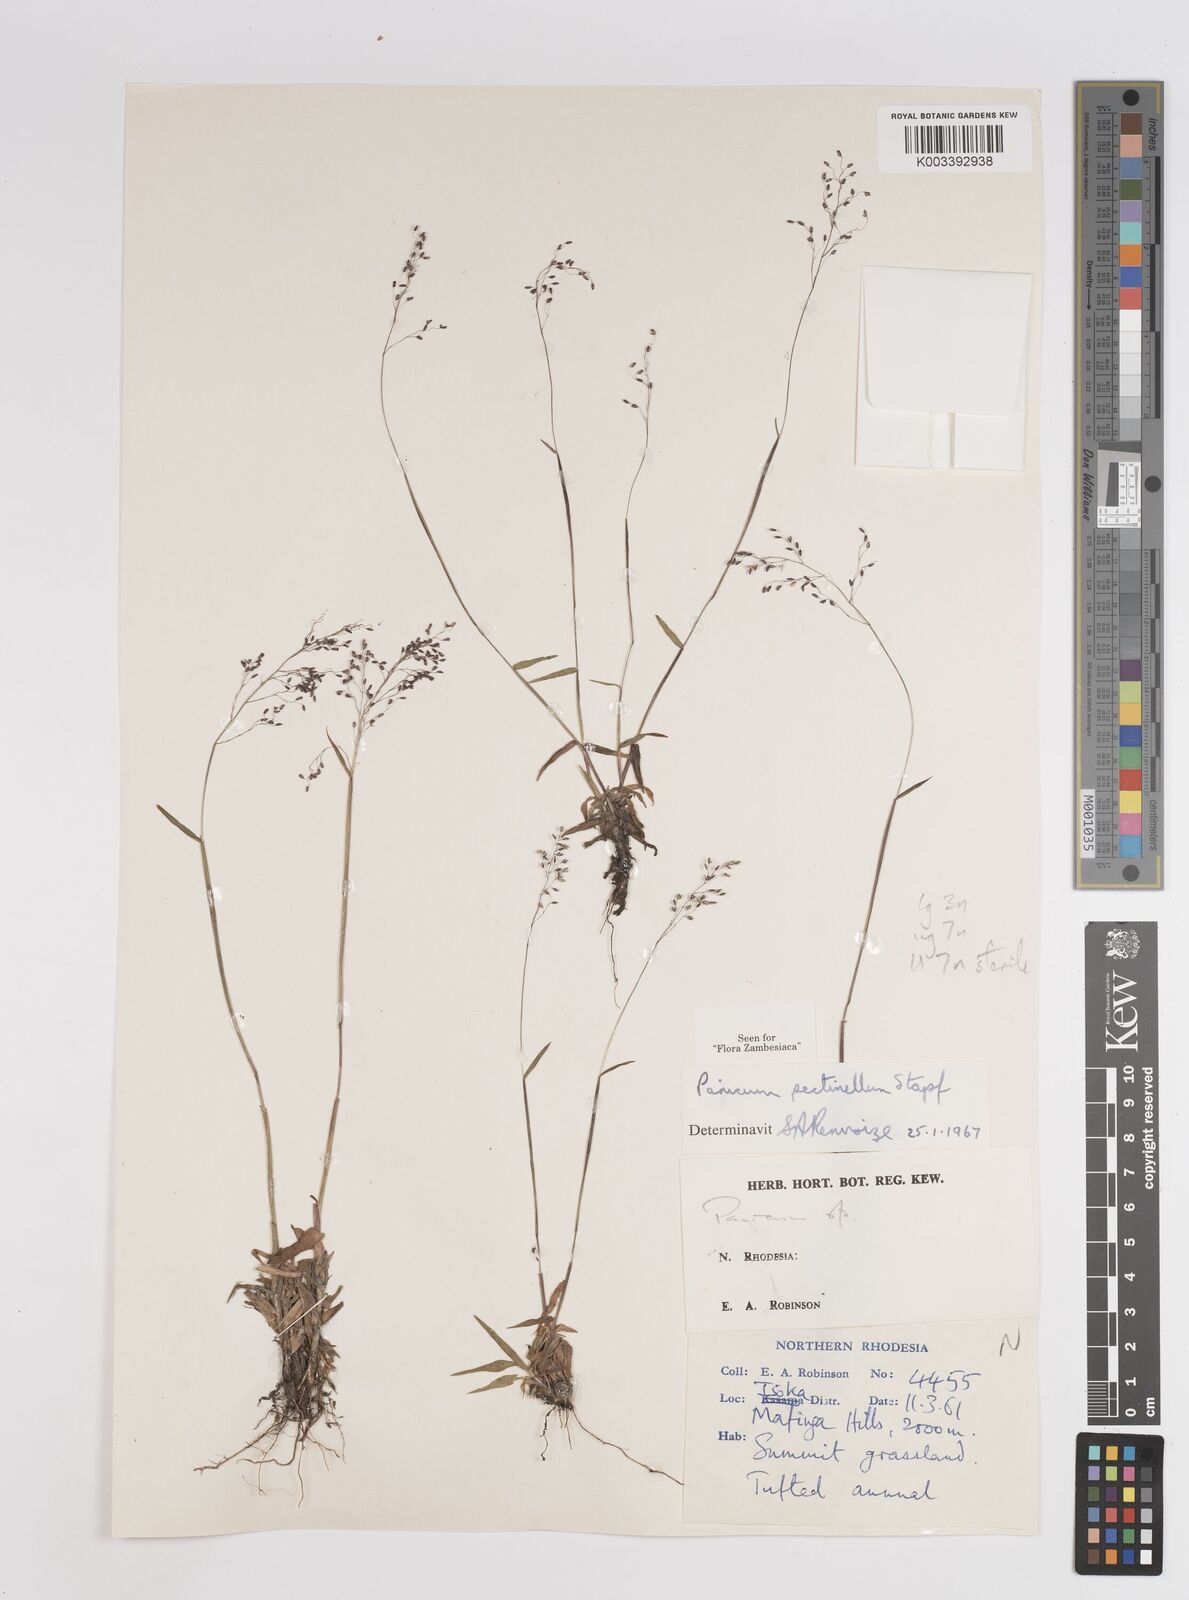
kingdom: Plantae
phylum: Tracheophyta
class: Liliopsida
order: Poales
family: Poaceae
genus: Adenochloa
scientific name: Adenochloa pectinella
